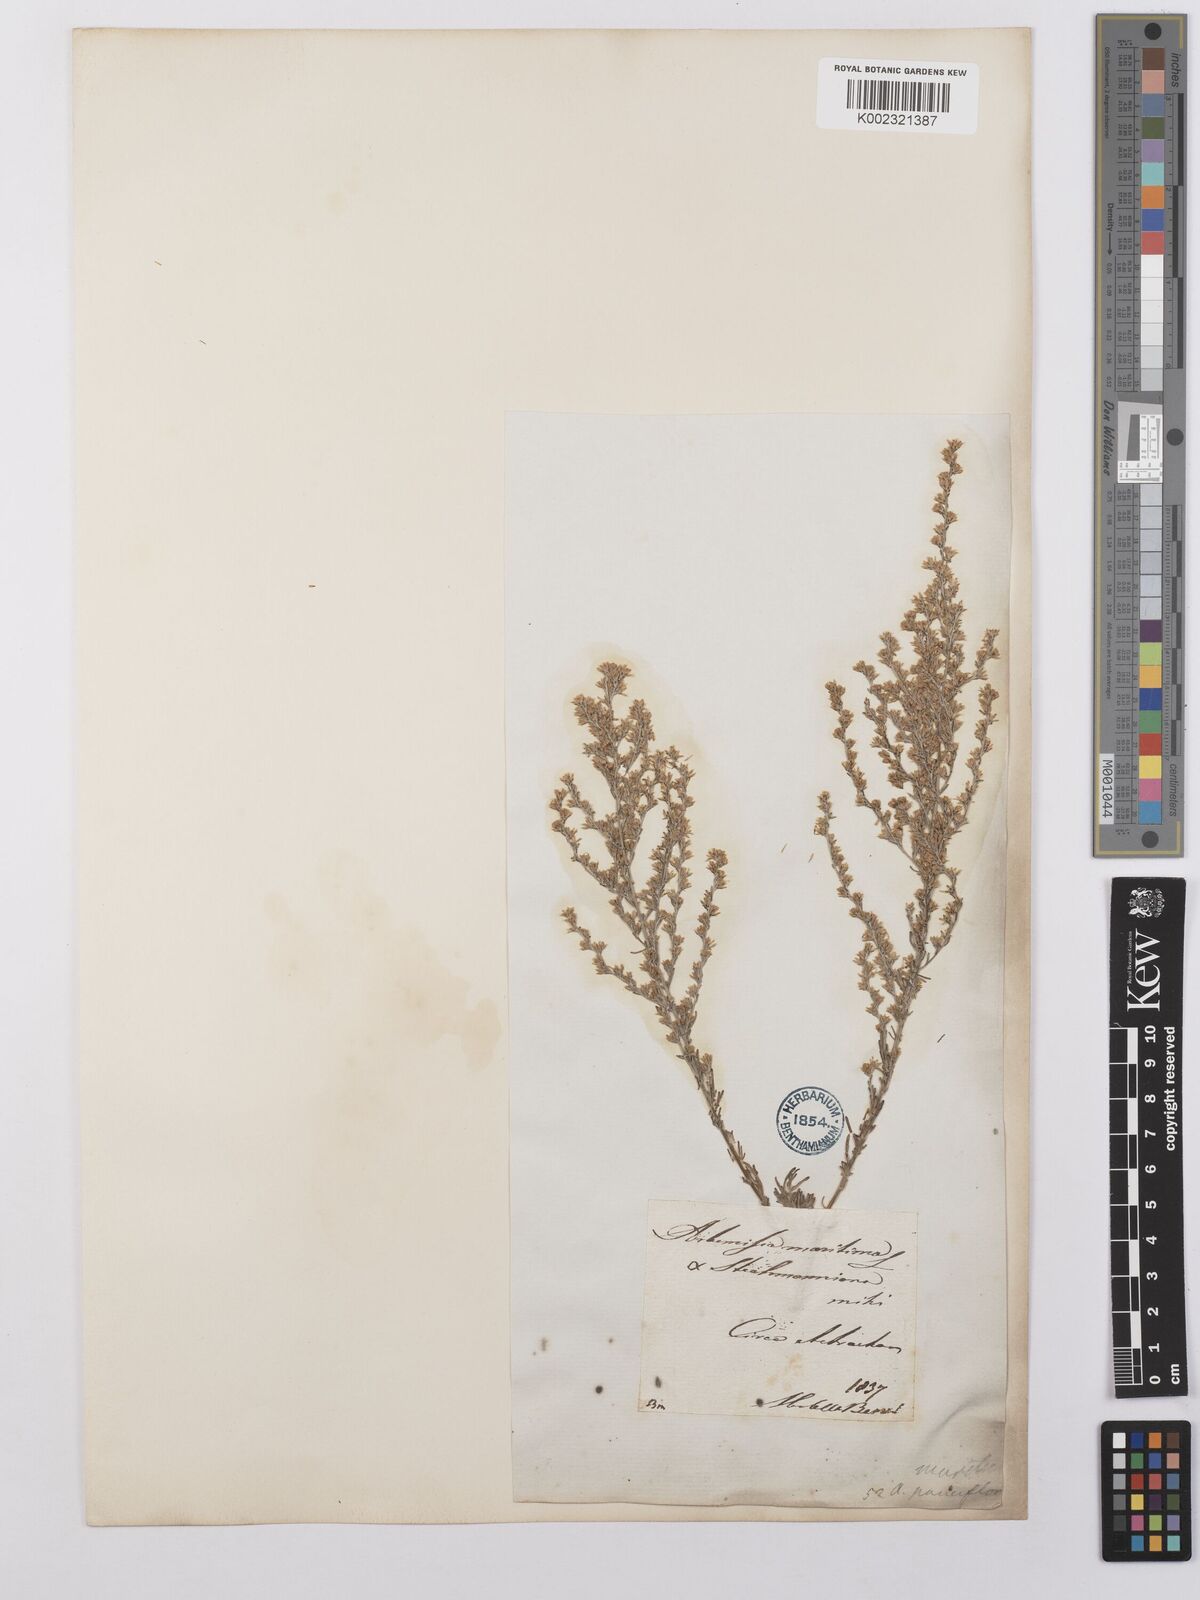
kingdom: Plantae
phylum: Tracheophyta
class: Magnoliopsida
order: Asterales
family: Asteraceae
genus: Artemisia
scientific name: Artemisia pauciflora
